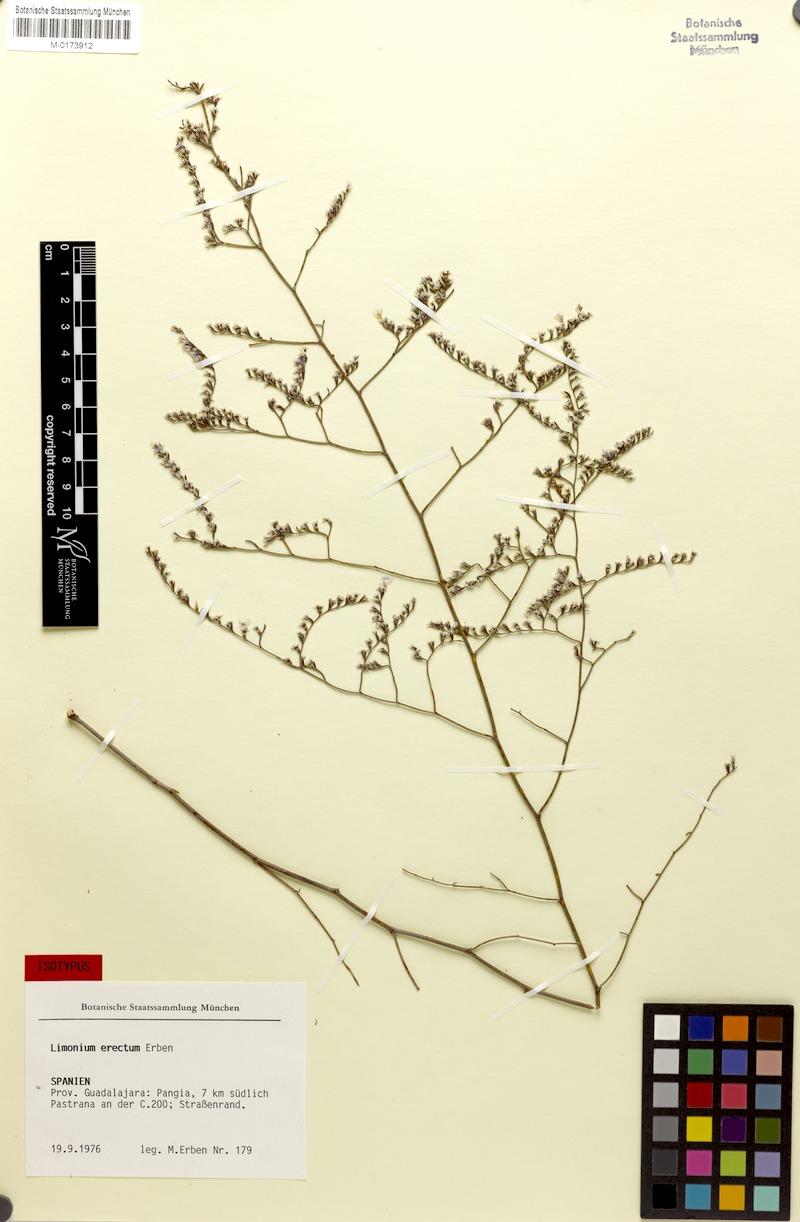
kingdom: Plantae
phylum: Tracheophyta
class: Magnoliopsida
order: Caryophyllales
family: Plumbaginaceae
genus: Limonium
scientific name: Limonium erectum
